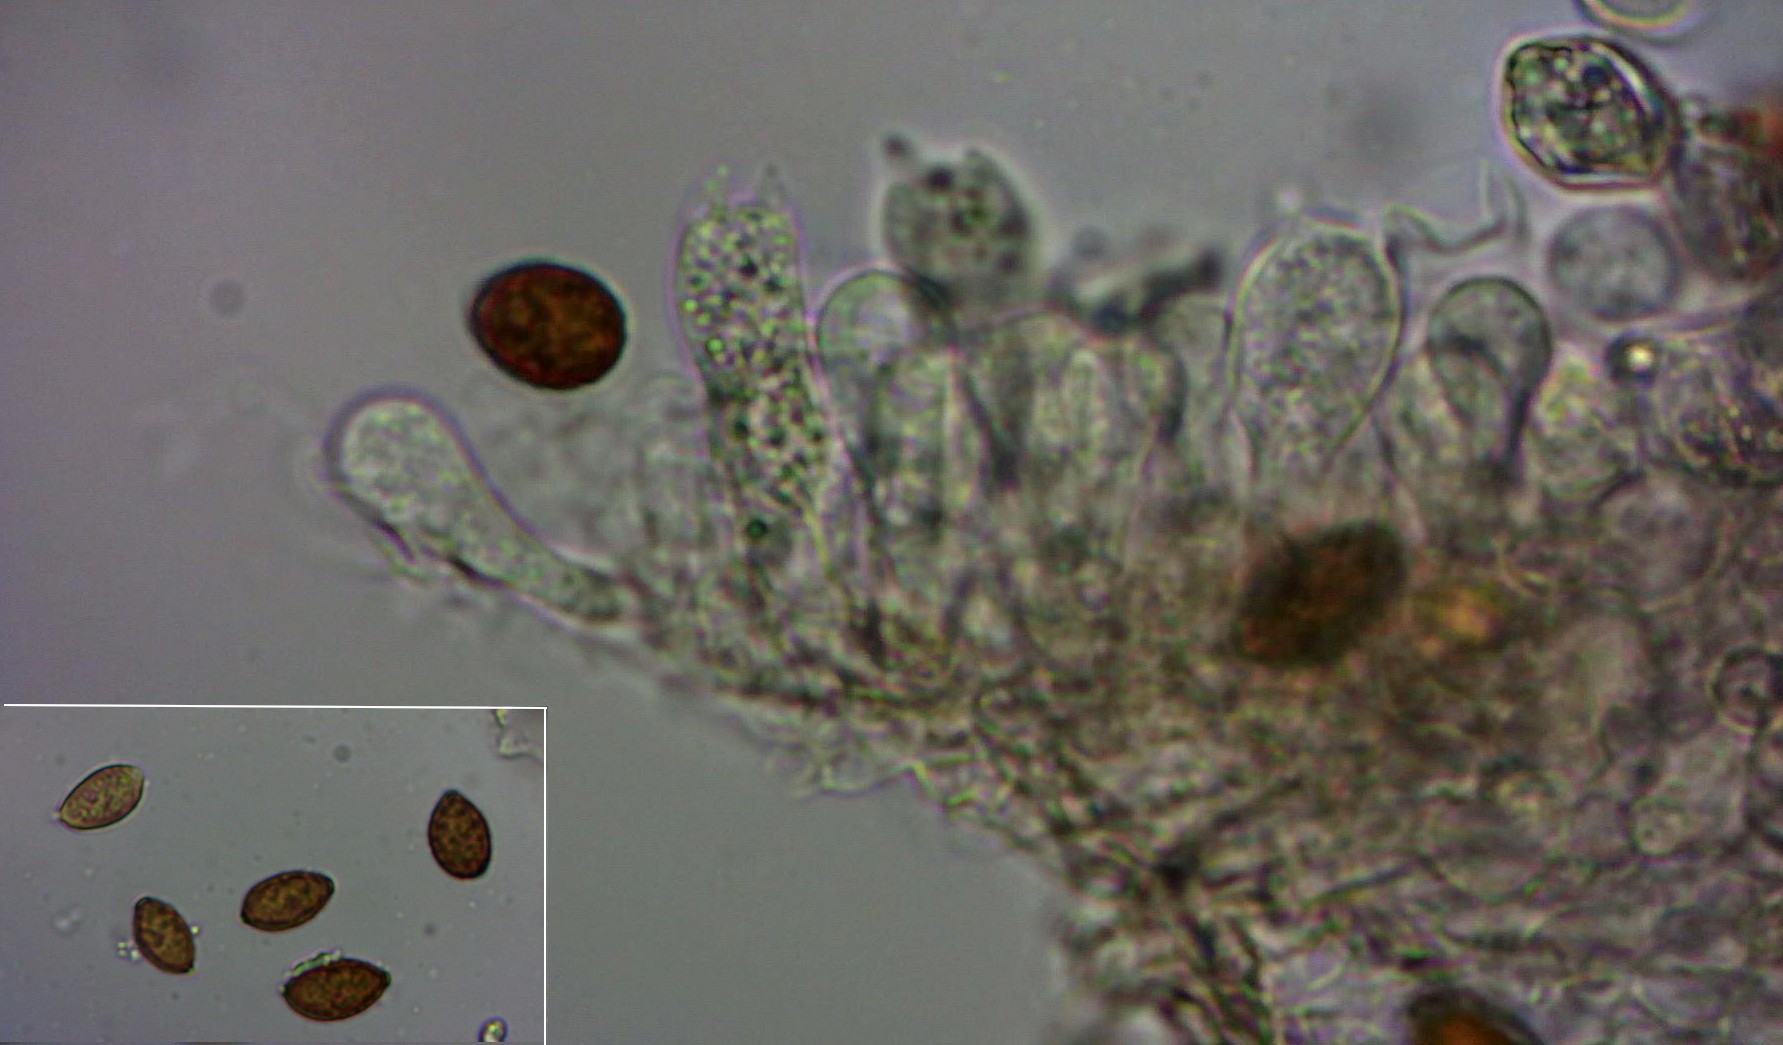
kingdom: Fungi
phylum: Basidiomycota
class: Agaricomycetes
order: Agaricales
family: Bolbitiaceae
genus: Panaeolina
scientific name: Panaeolina foenisecii
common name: høslætsvamp
